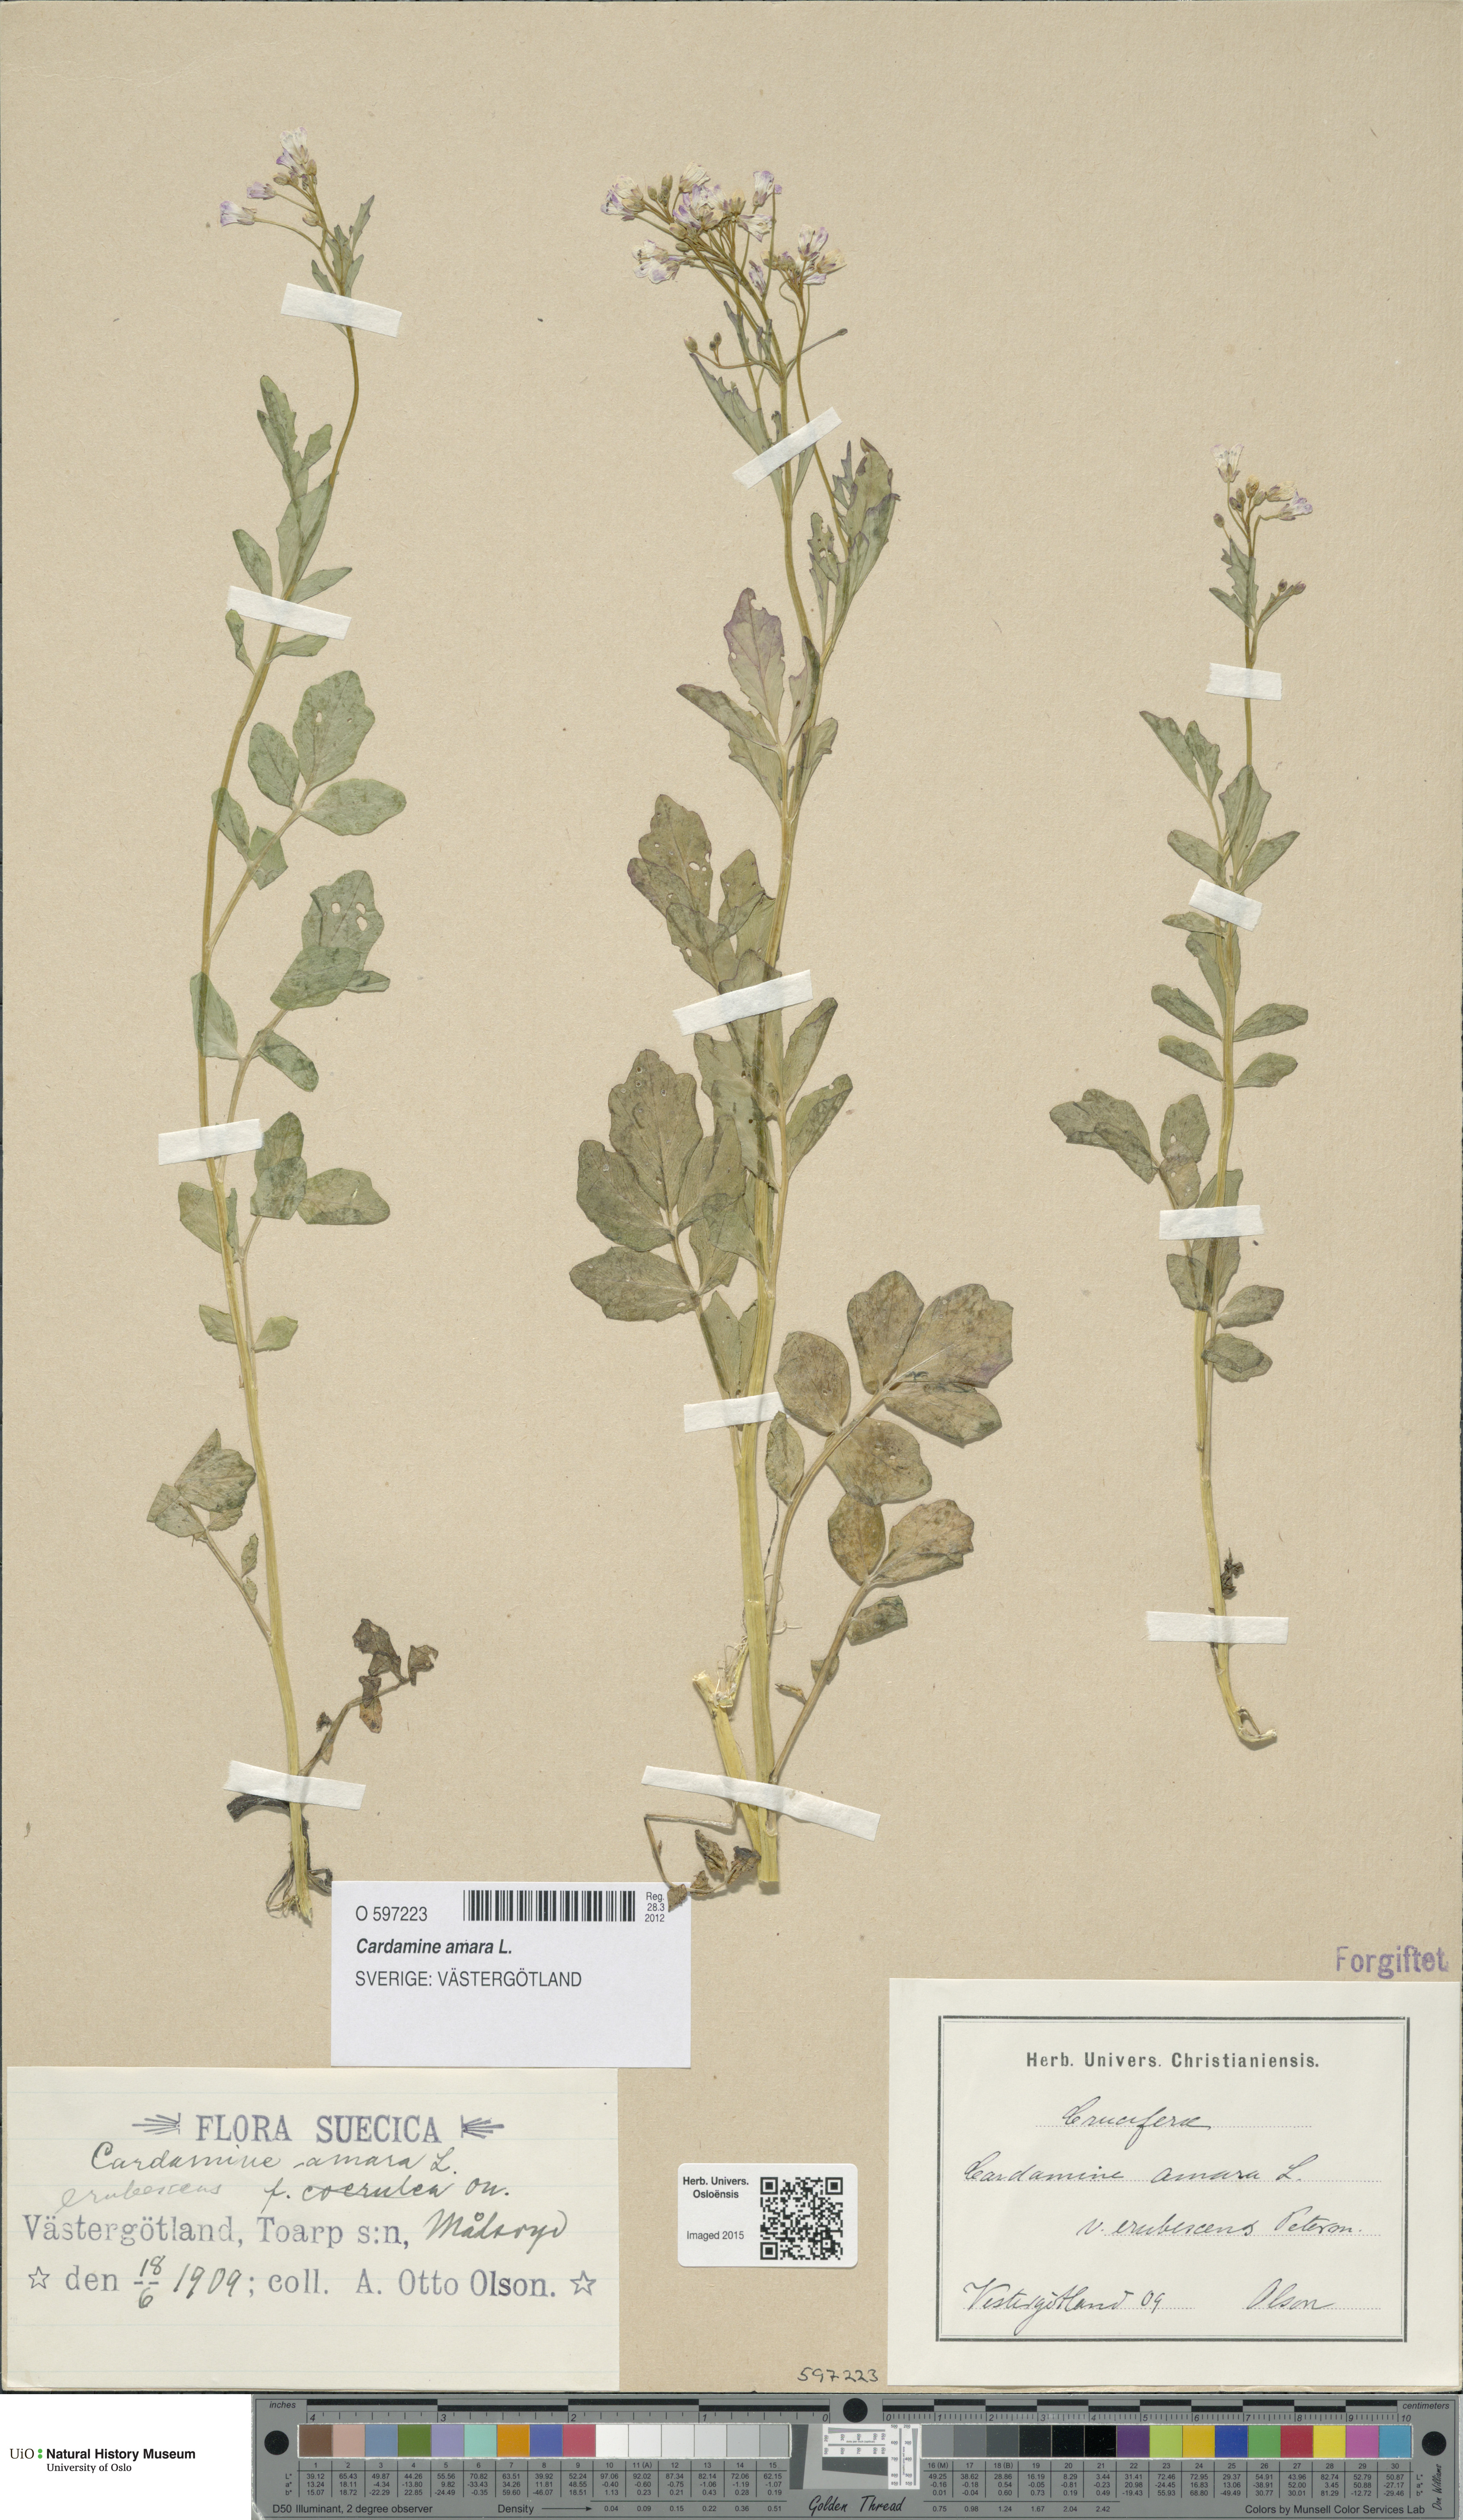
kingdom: Plantae
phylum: Tracheophyta
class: Magnoliopsida
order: Brassicales
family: Brassicaceae
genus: Cardamine
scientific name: Cardamine amara
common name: Large bitter-cress
